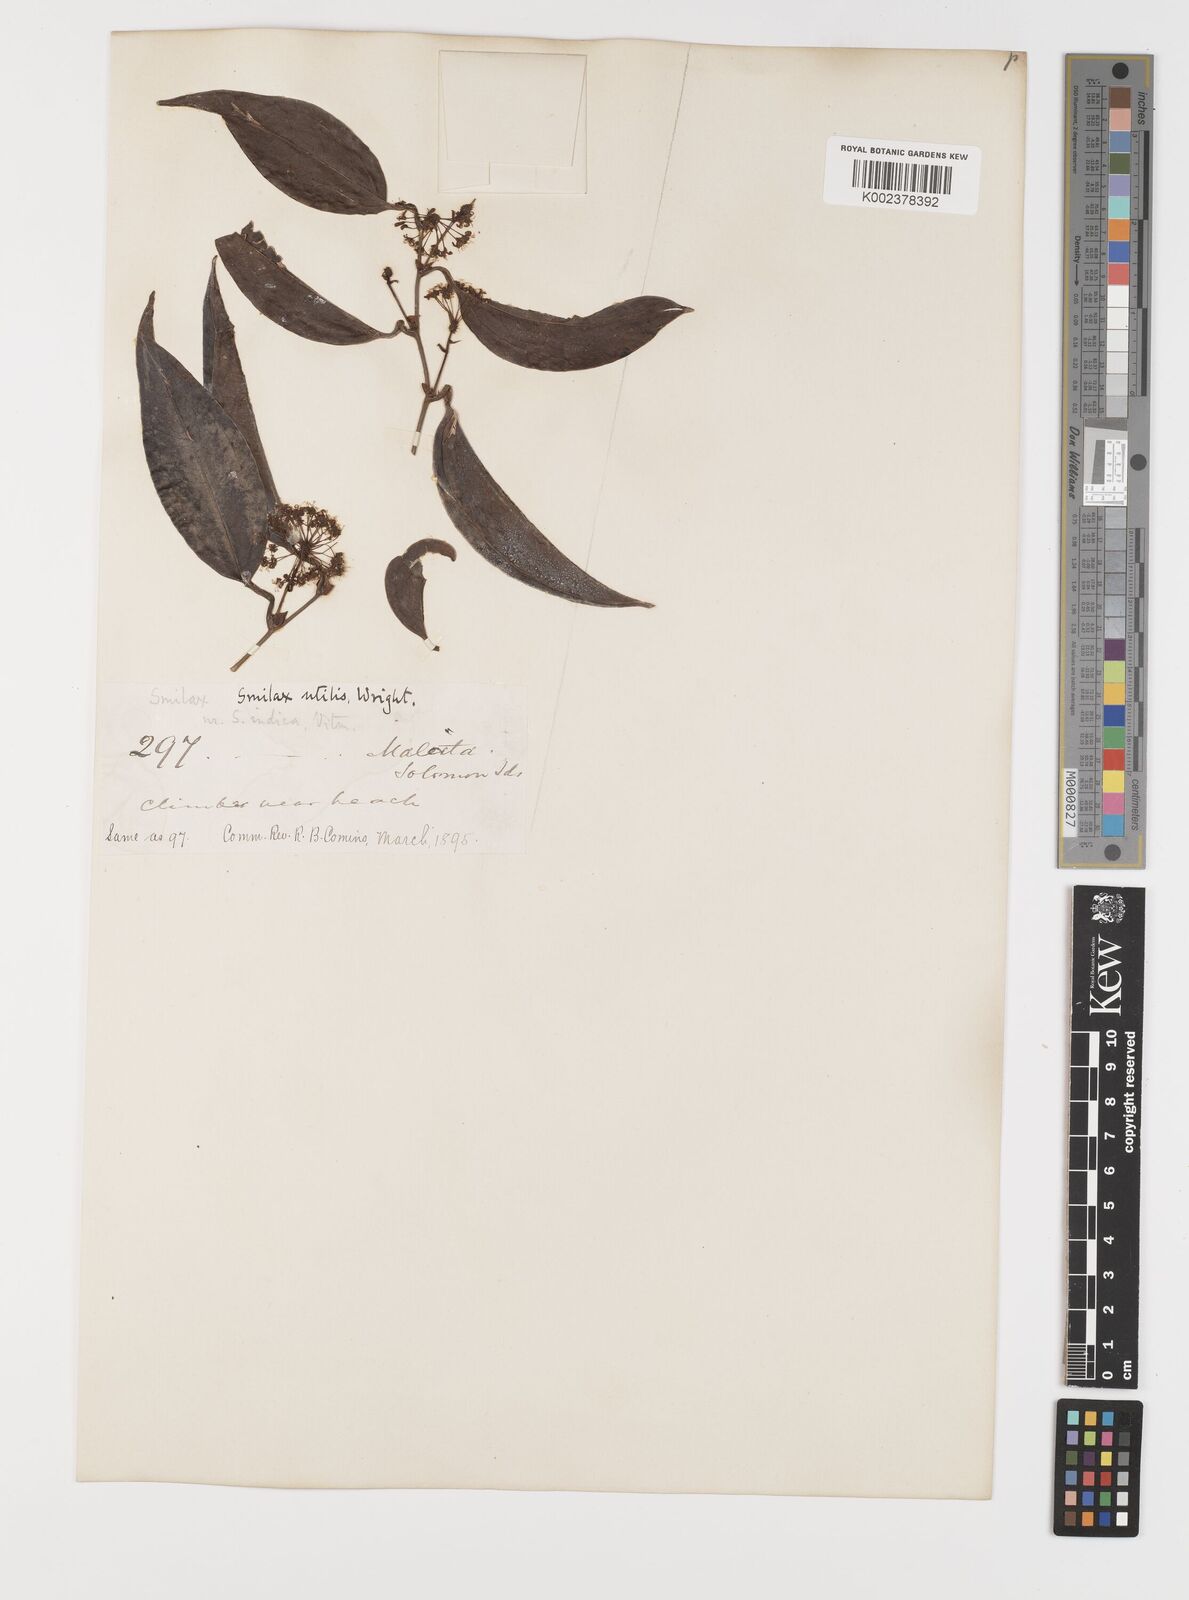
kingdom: Plantae
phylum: Tracheophyta
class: Liliopsida
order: Liliales
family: Smilacaceae
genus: Smilax
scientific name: Smilax ornata
